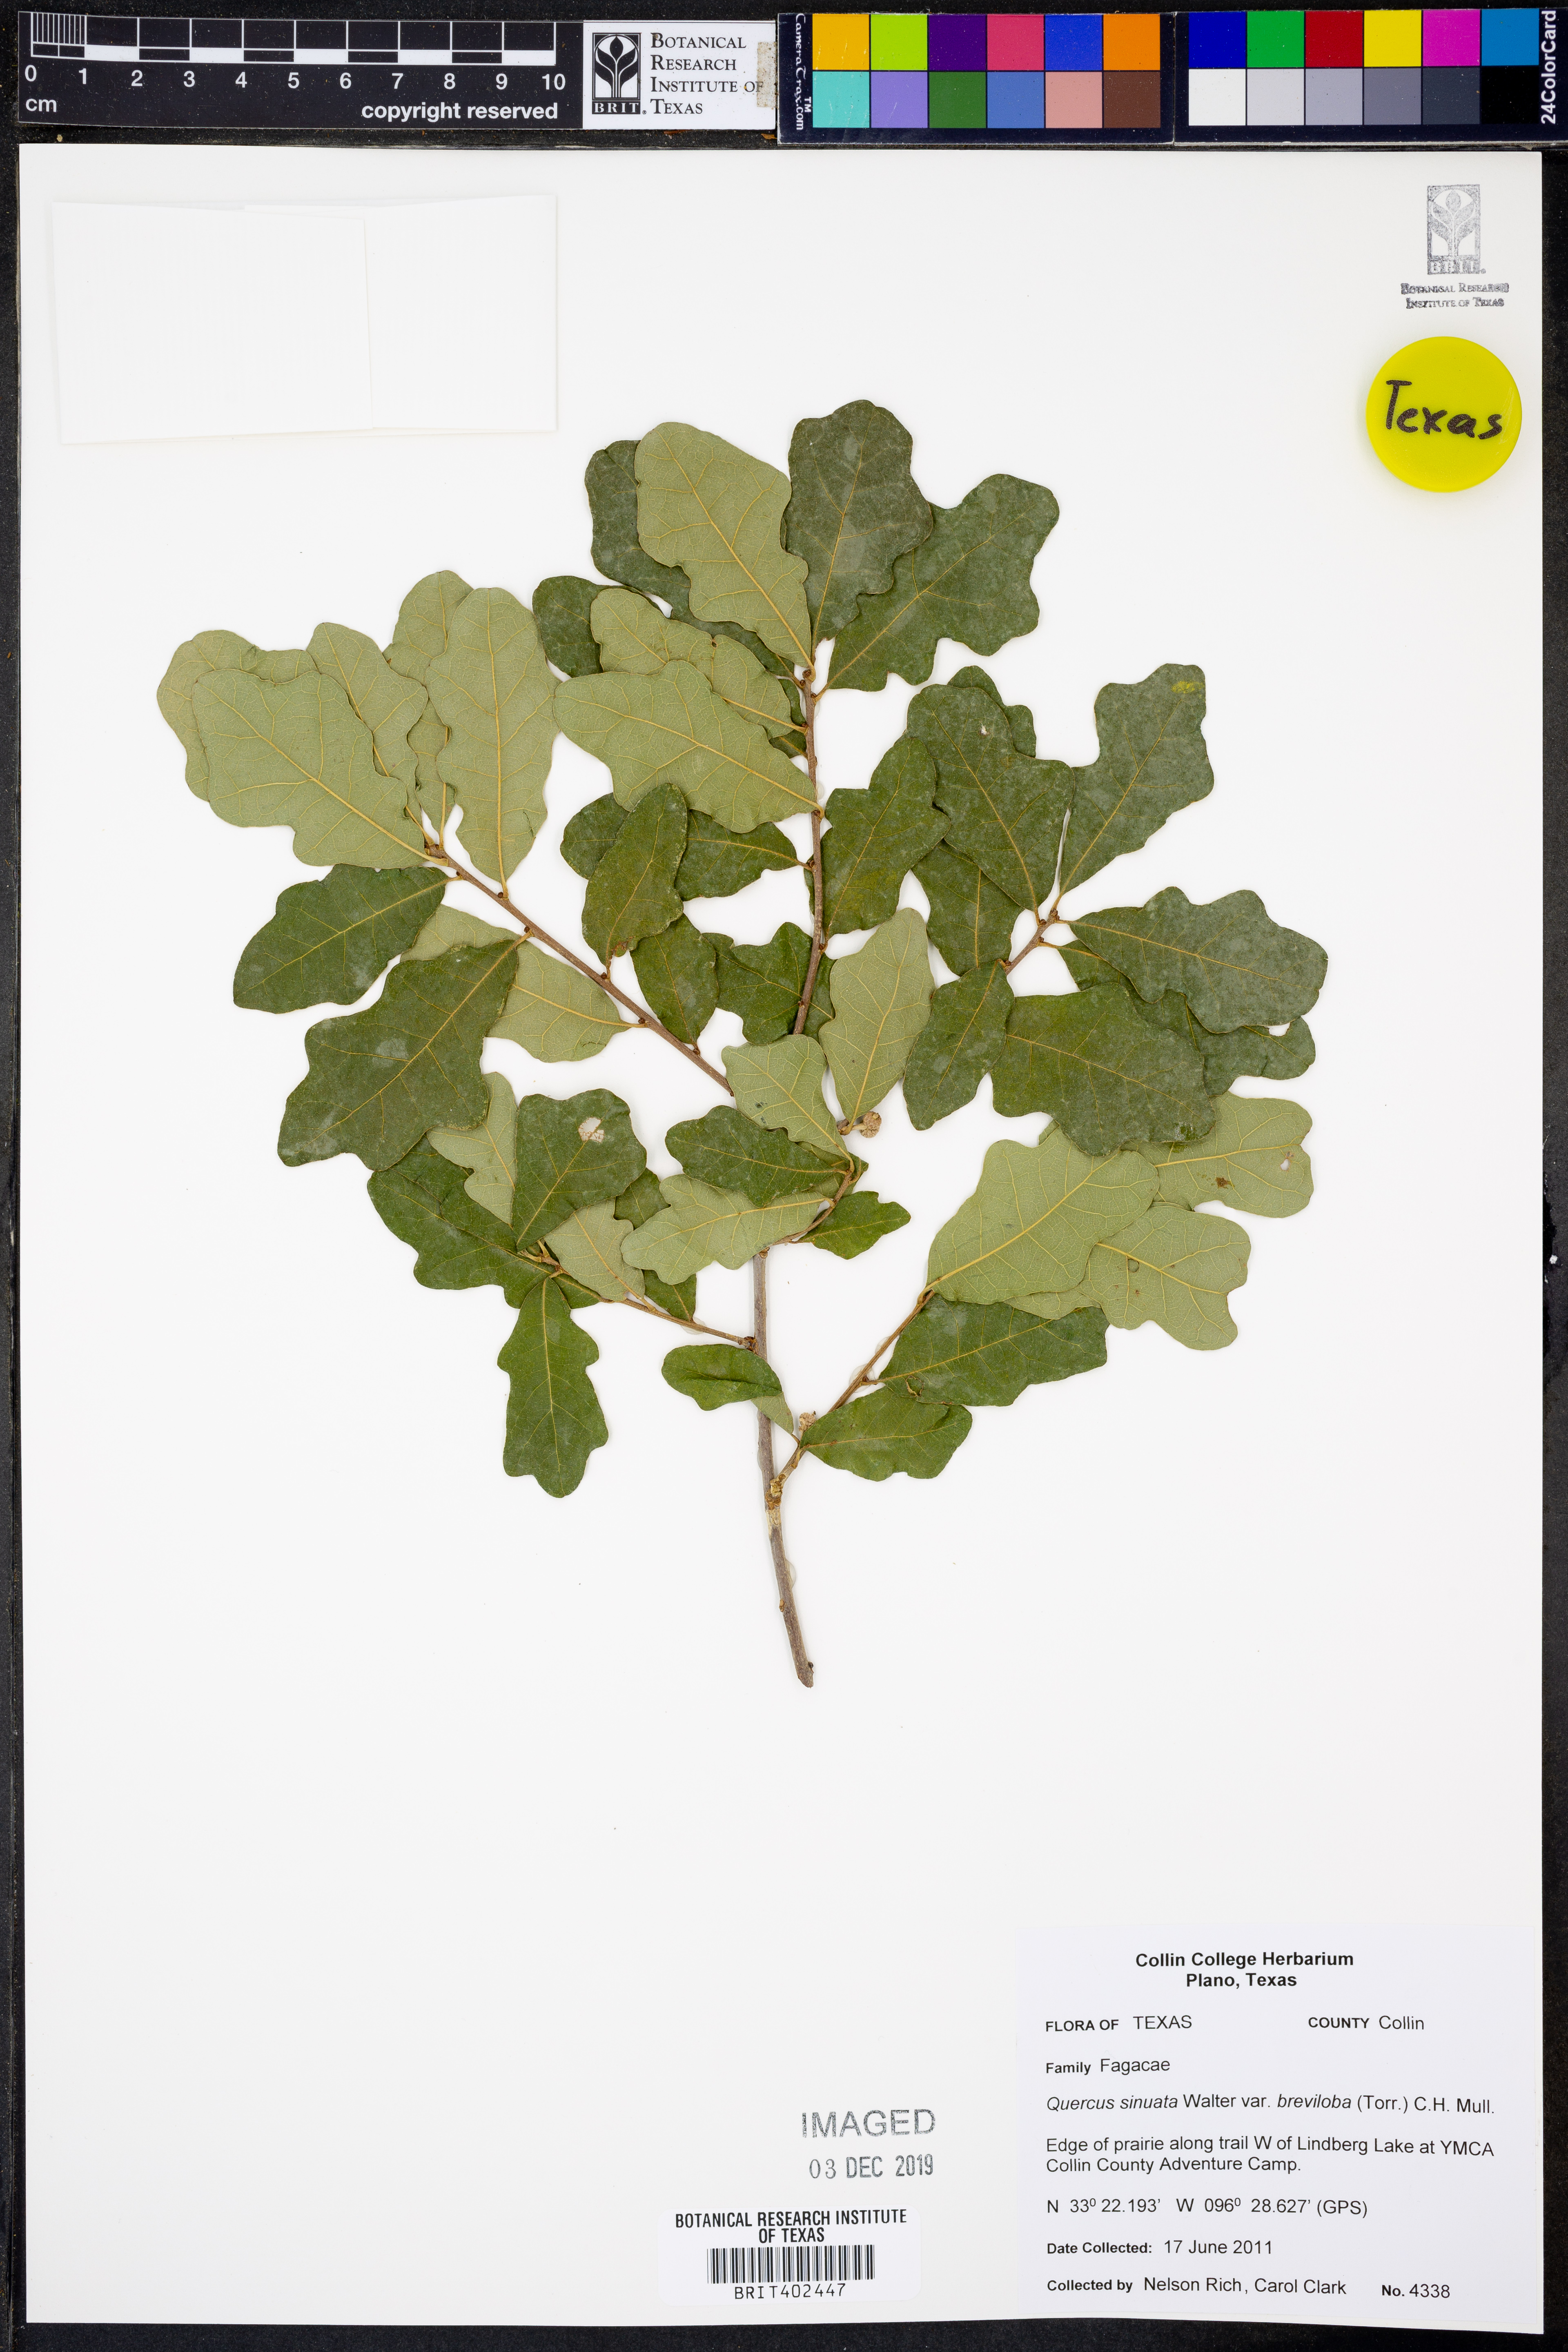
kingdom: Plantae
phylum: Tracheophyta
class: Magnoliopsida
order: Fagales
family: Fagaceae
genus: Quercus
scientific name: Quercus sinuata
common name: Durand oak
